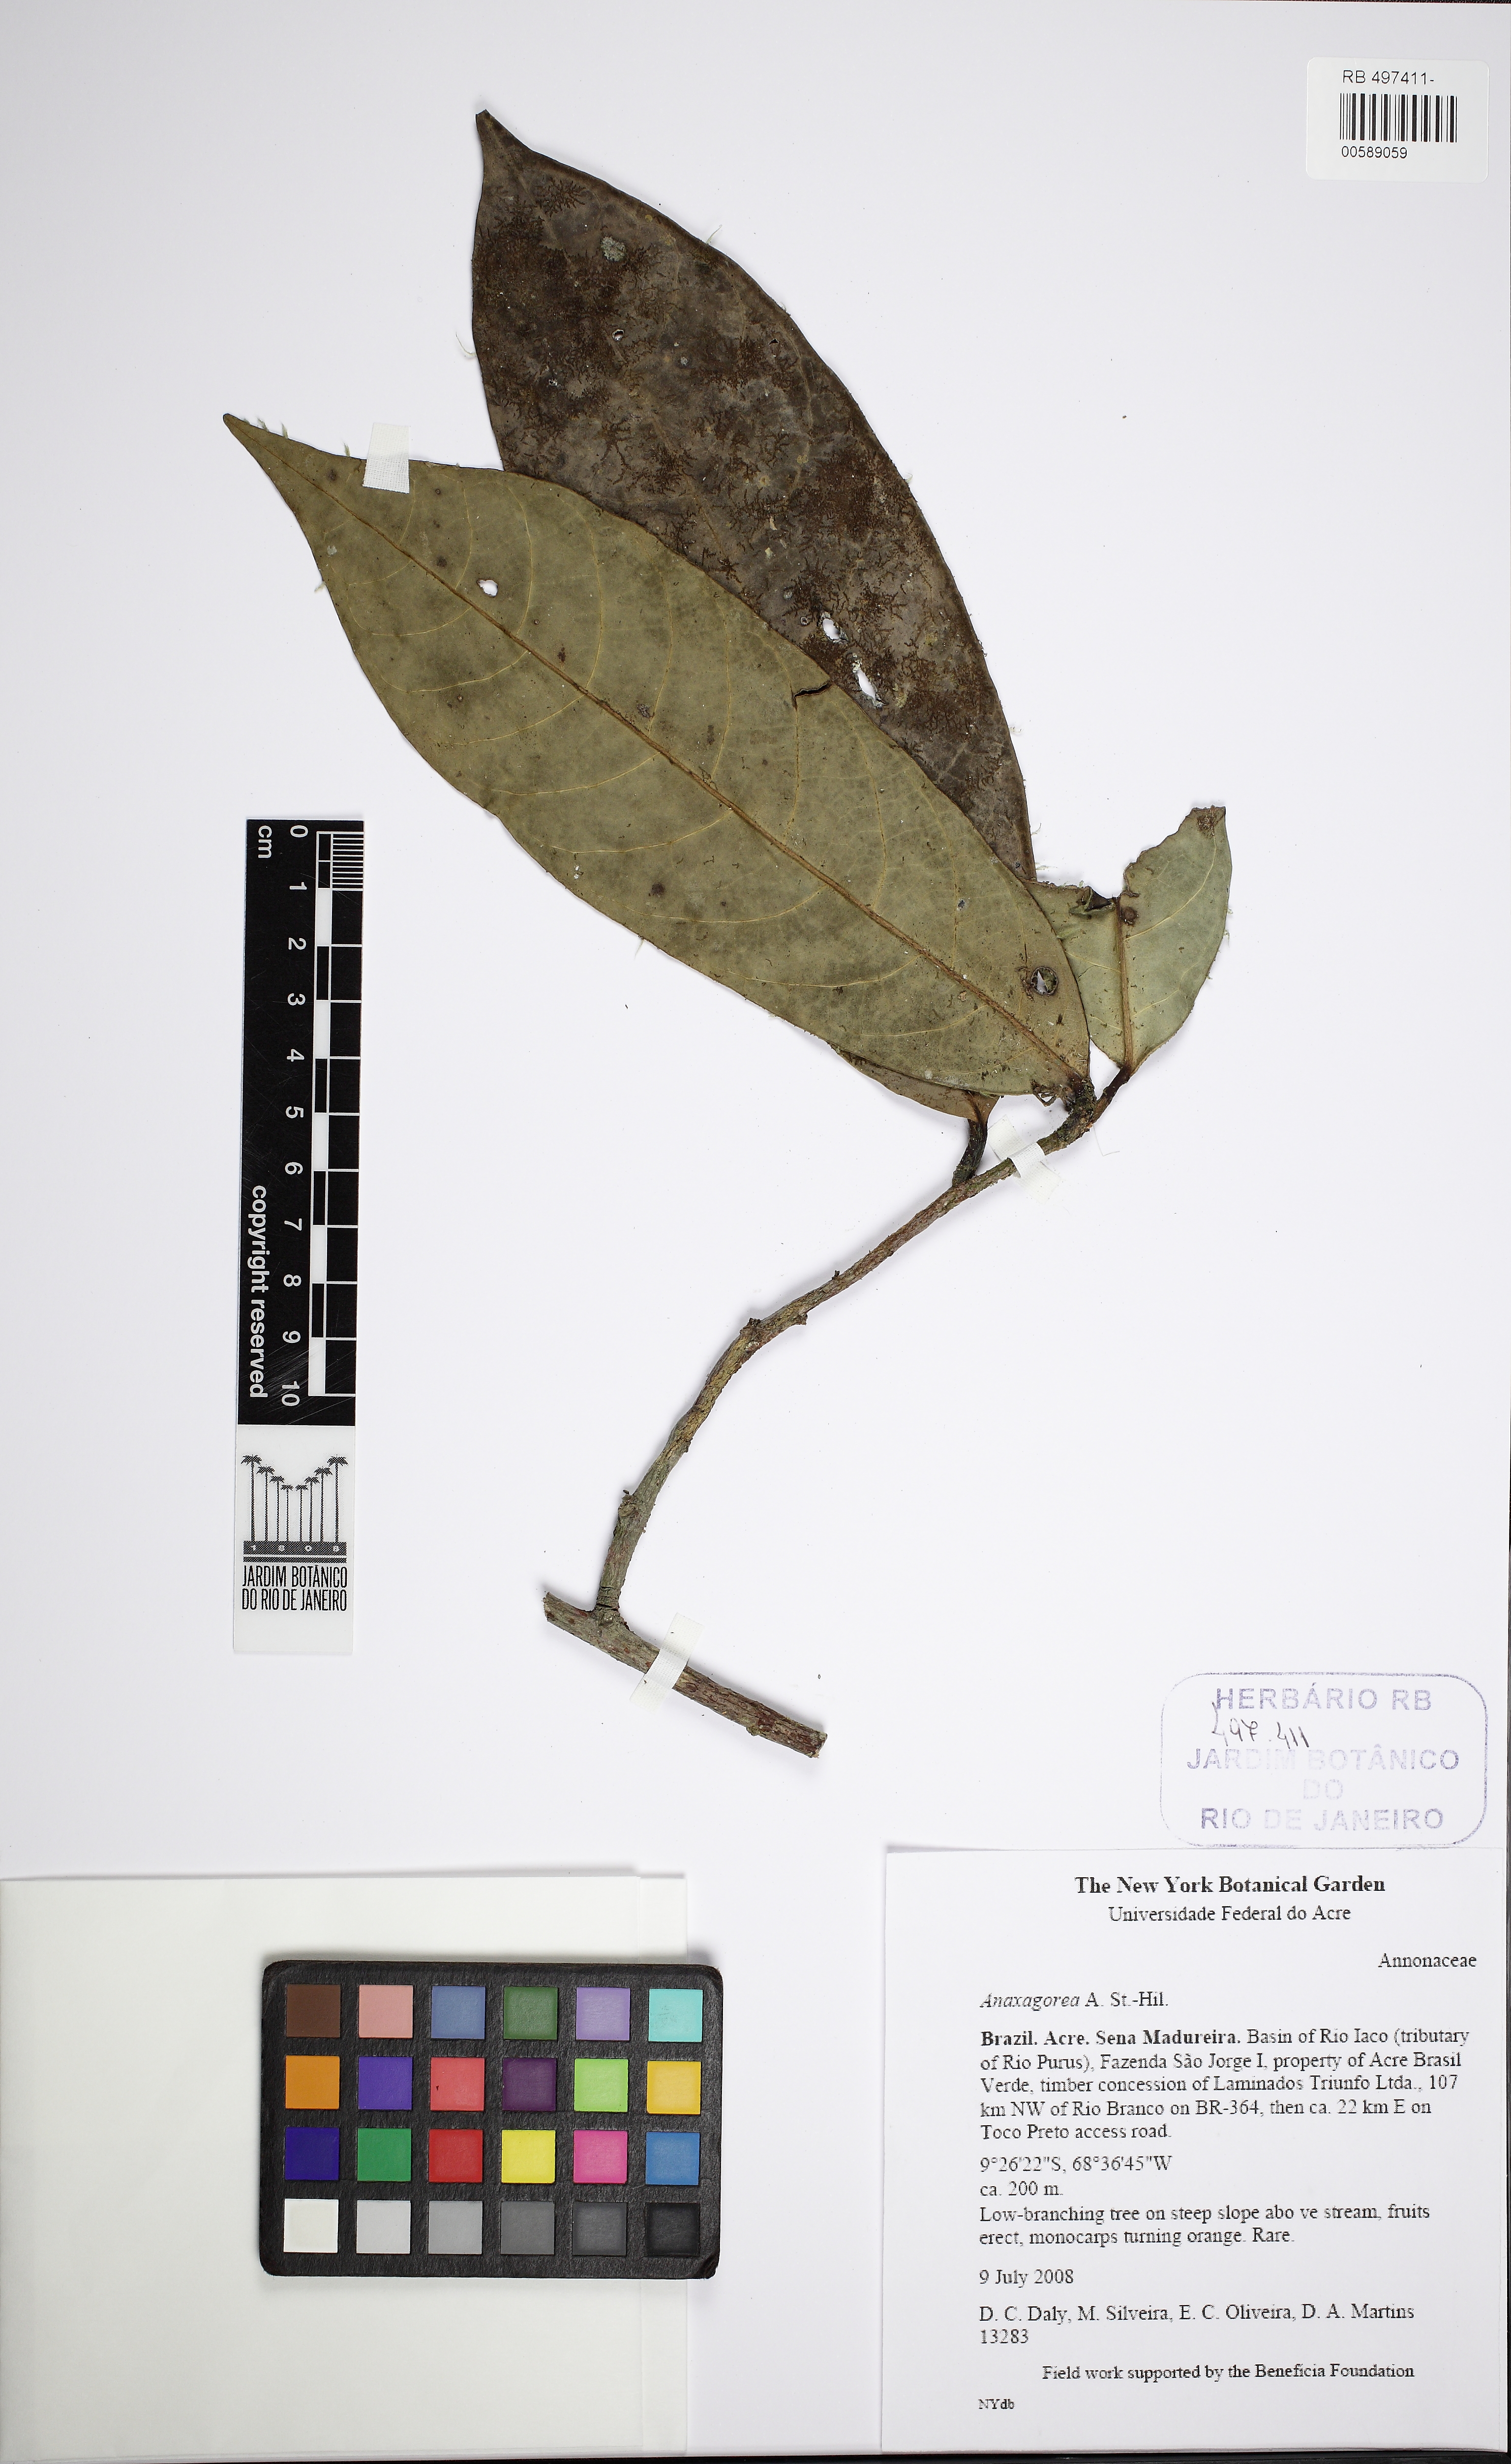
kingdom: Plantae
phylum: Tracheophyta
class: Magnoliopsida
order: Magnoliales
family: Annonaceae
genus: Anaxagorea
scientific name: Anaxagorea
